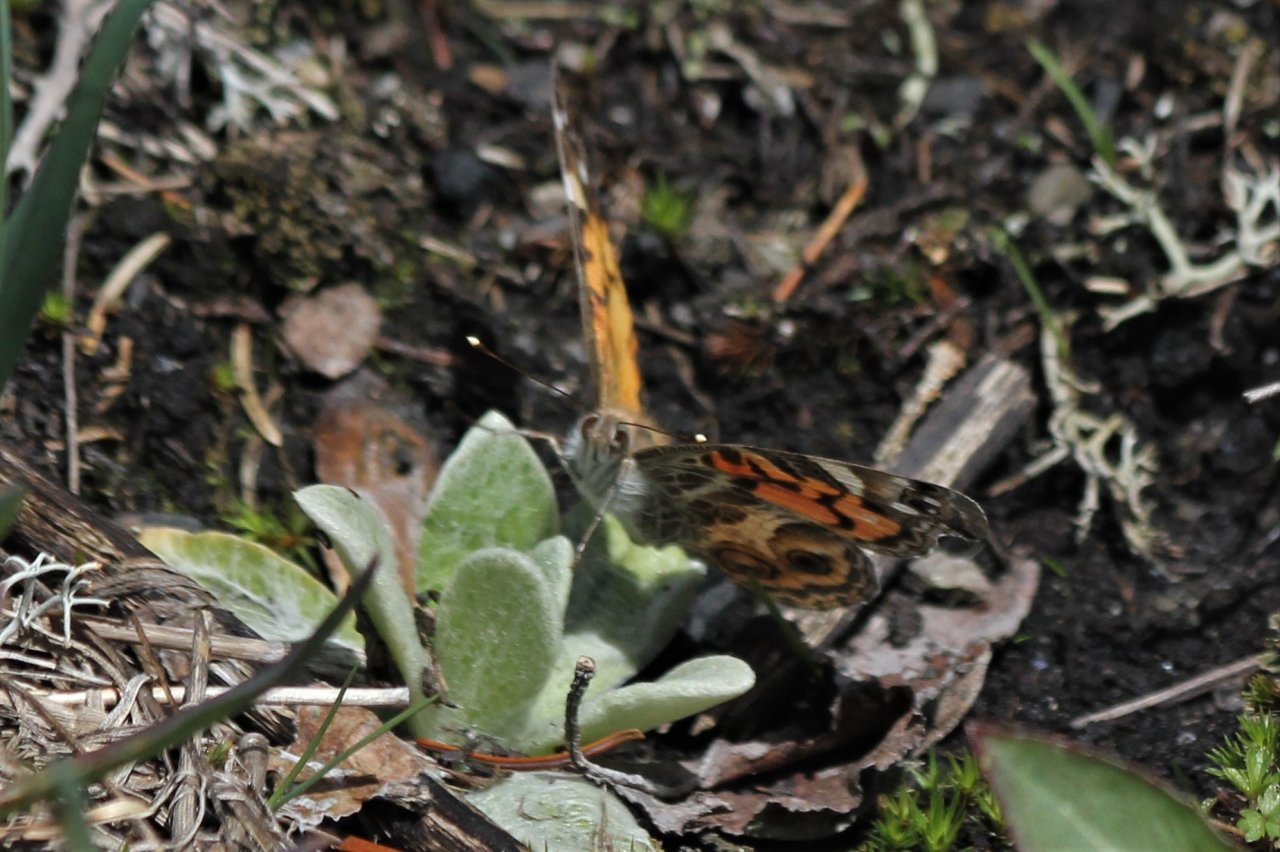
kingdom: Animalia
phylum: Arthropoda
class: Insecta
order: Lepidoptera
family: Nymphalidae
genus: Vanessa
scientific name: Vanessa virginiensis
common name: American Lady
